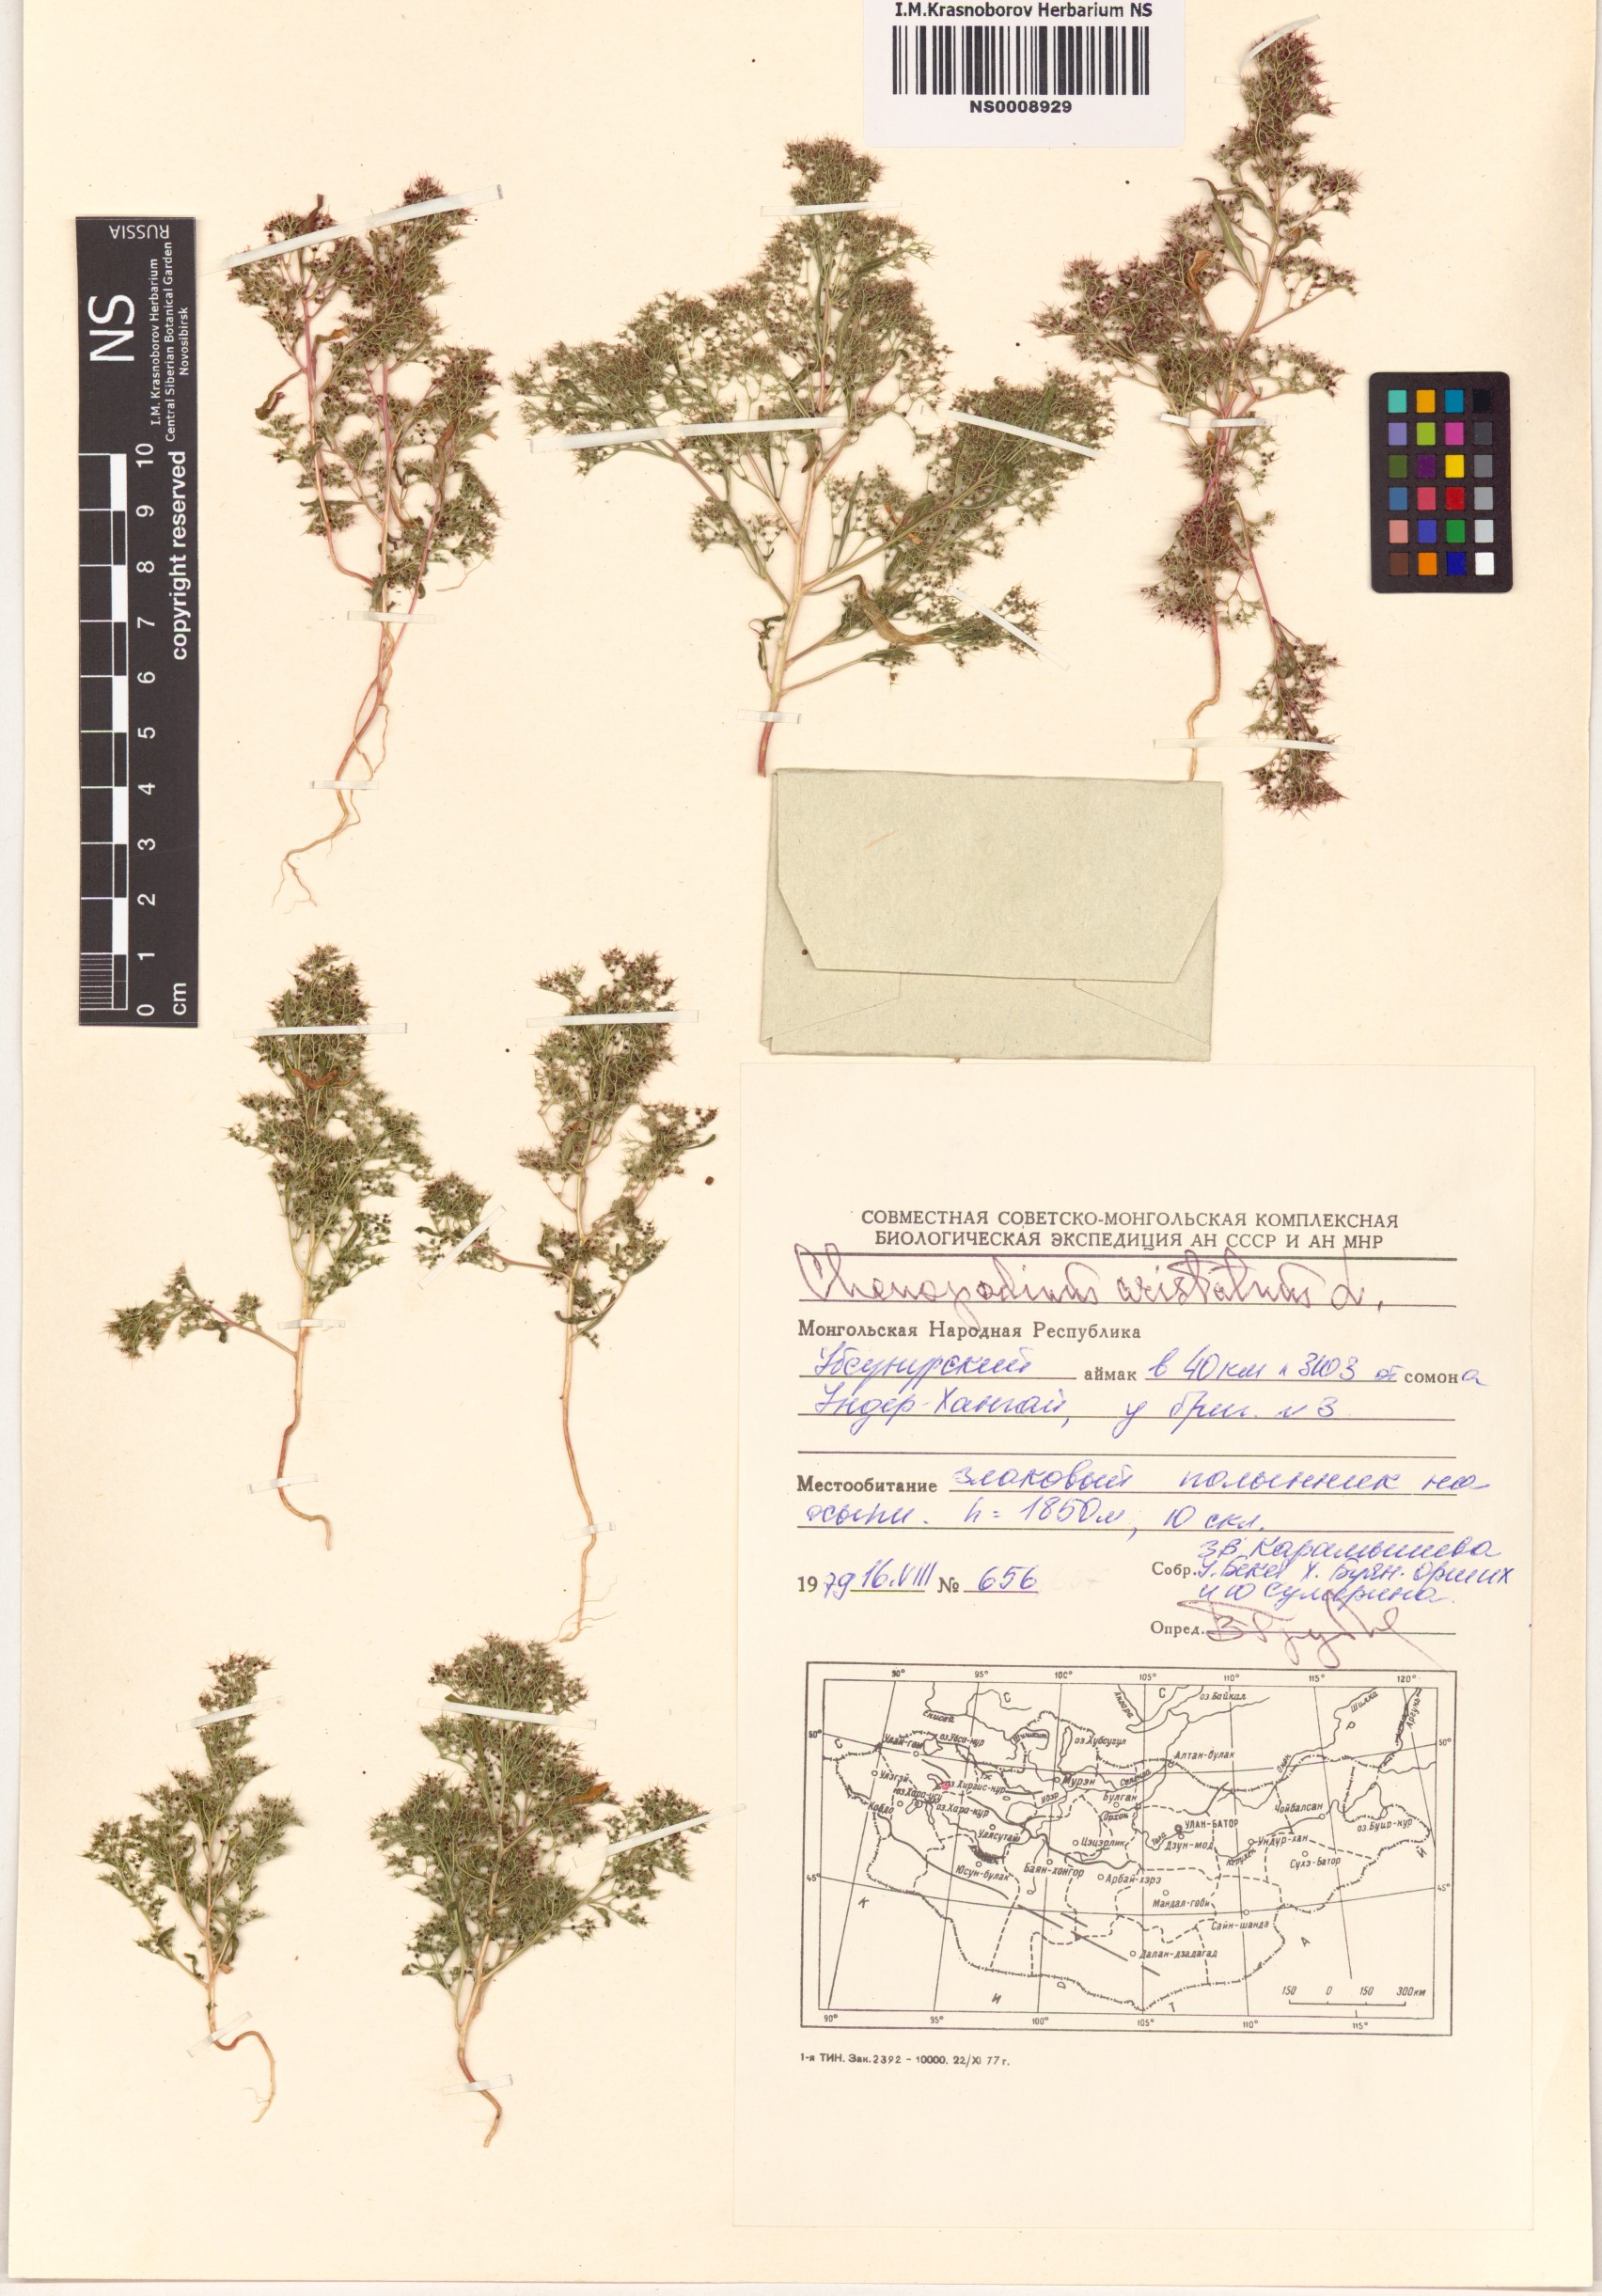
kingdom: Plantae
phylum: Tracheophyta
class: Magnoliopsida
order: Caryophyllales
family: Amaranthaceae
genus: Teloxys
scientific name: Teloxys aristata
